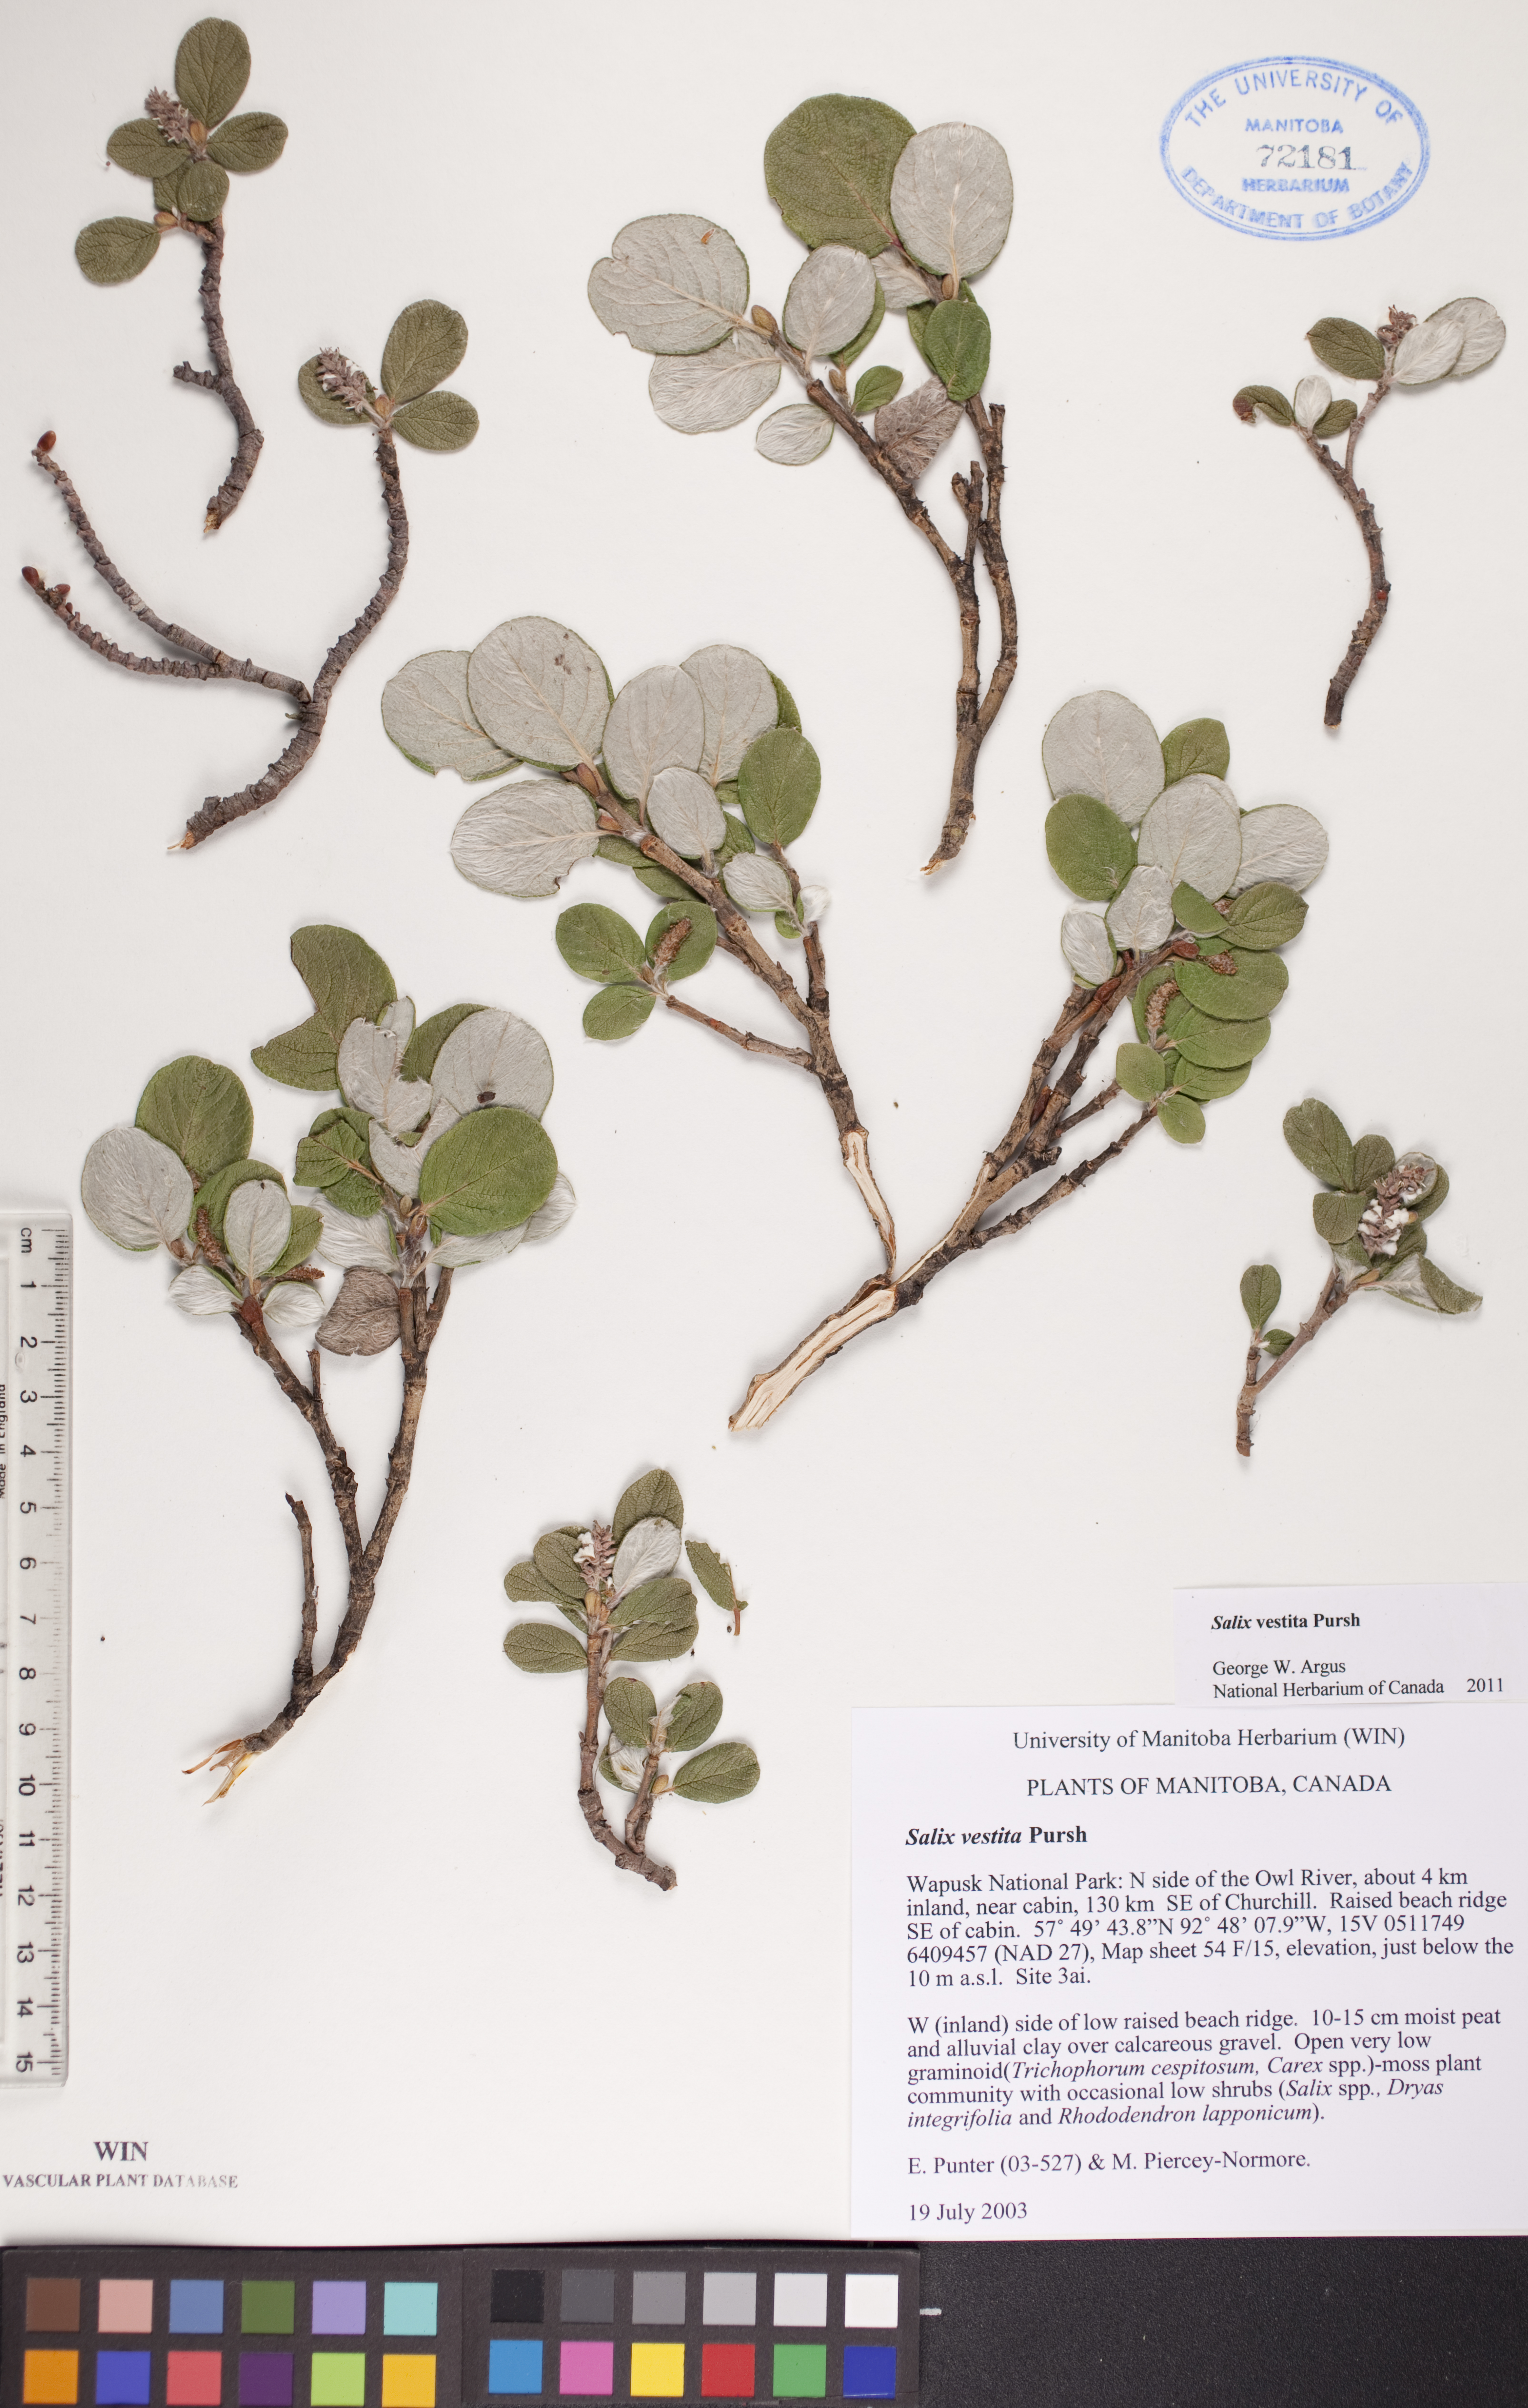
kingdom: Plantae
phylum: Tracheophyta
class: Magnoliopsida
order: Malpighiales
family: Salicaceae
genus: Salix
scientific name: Salix vestita
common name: Hairy willow
